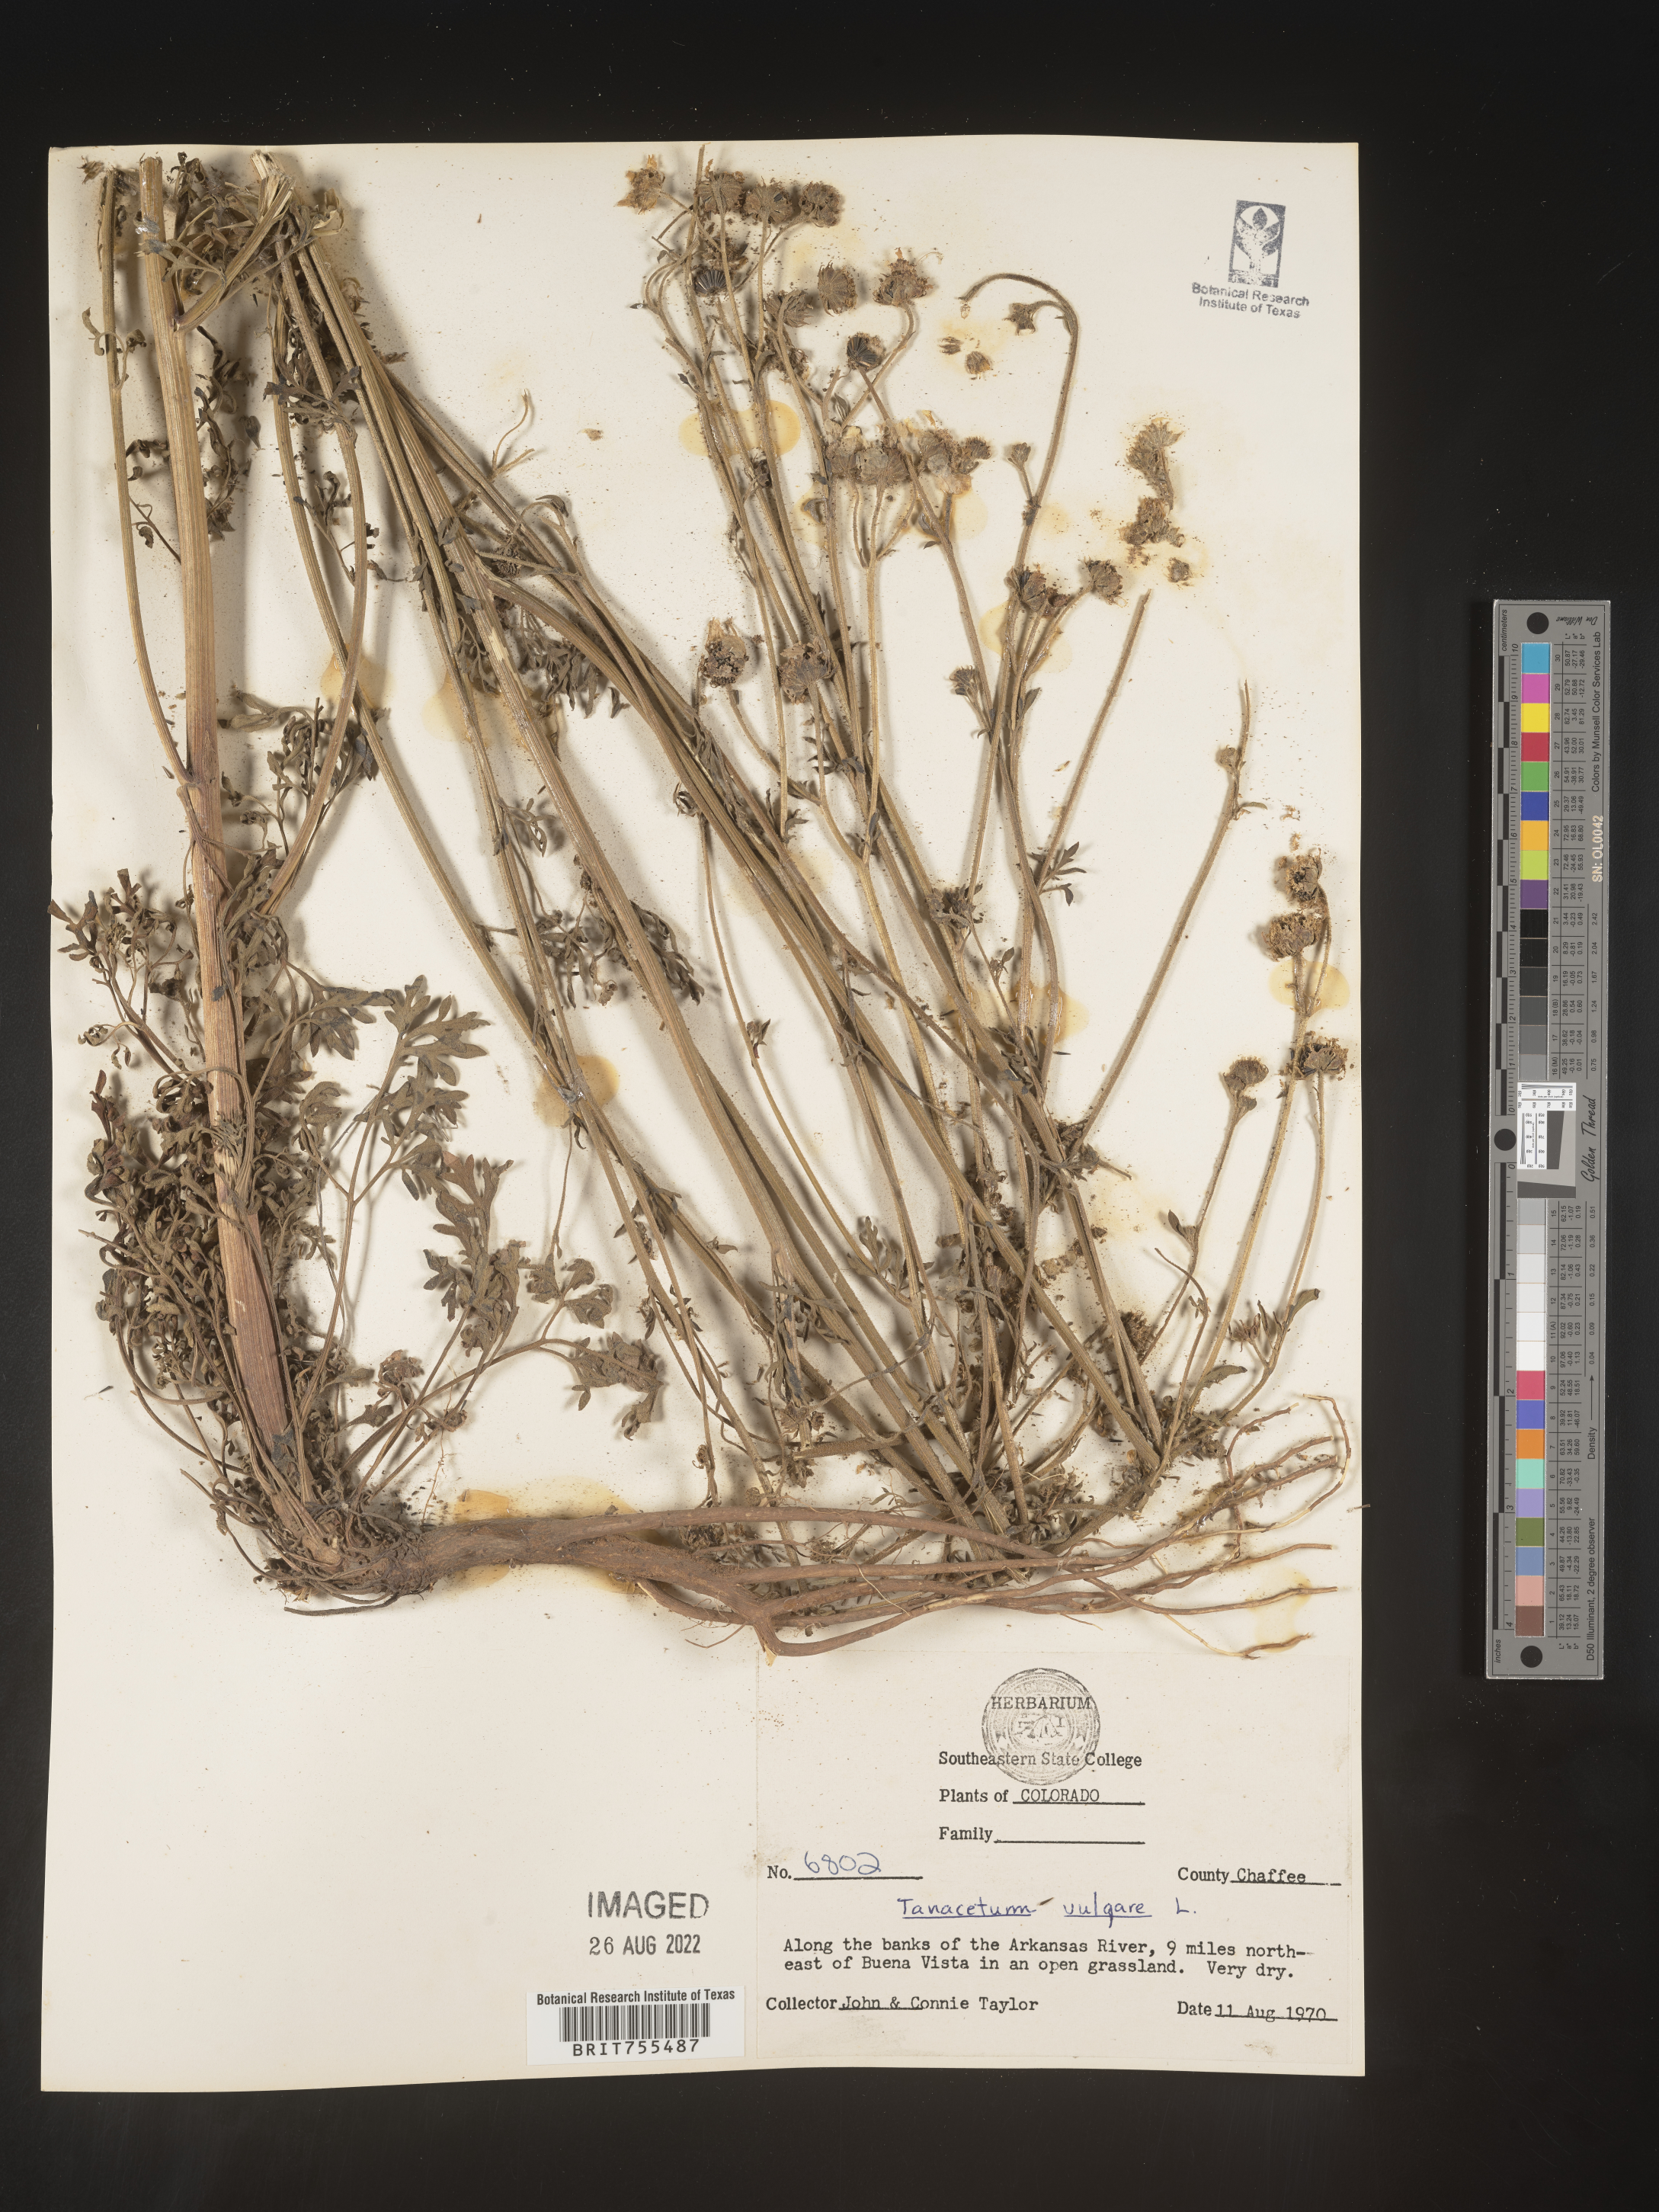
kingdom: Plantae
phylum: Tracheophyta
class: Magnoliopsida
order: Asterales
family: Asteraceae
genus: Tanacetum
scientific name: Tanacetum vulgare
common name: Common tansy
